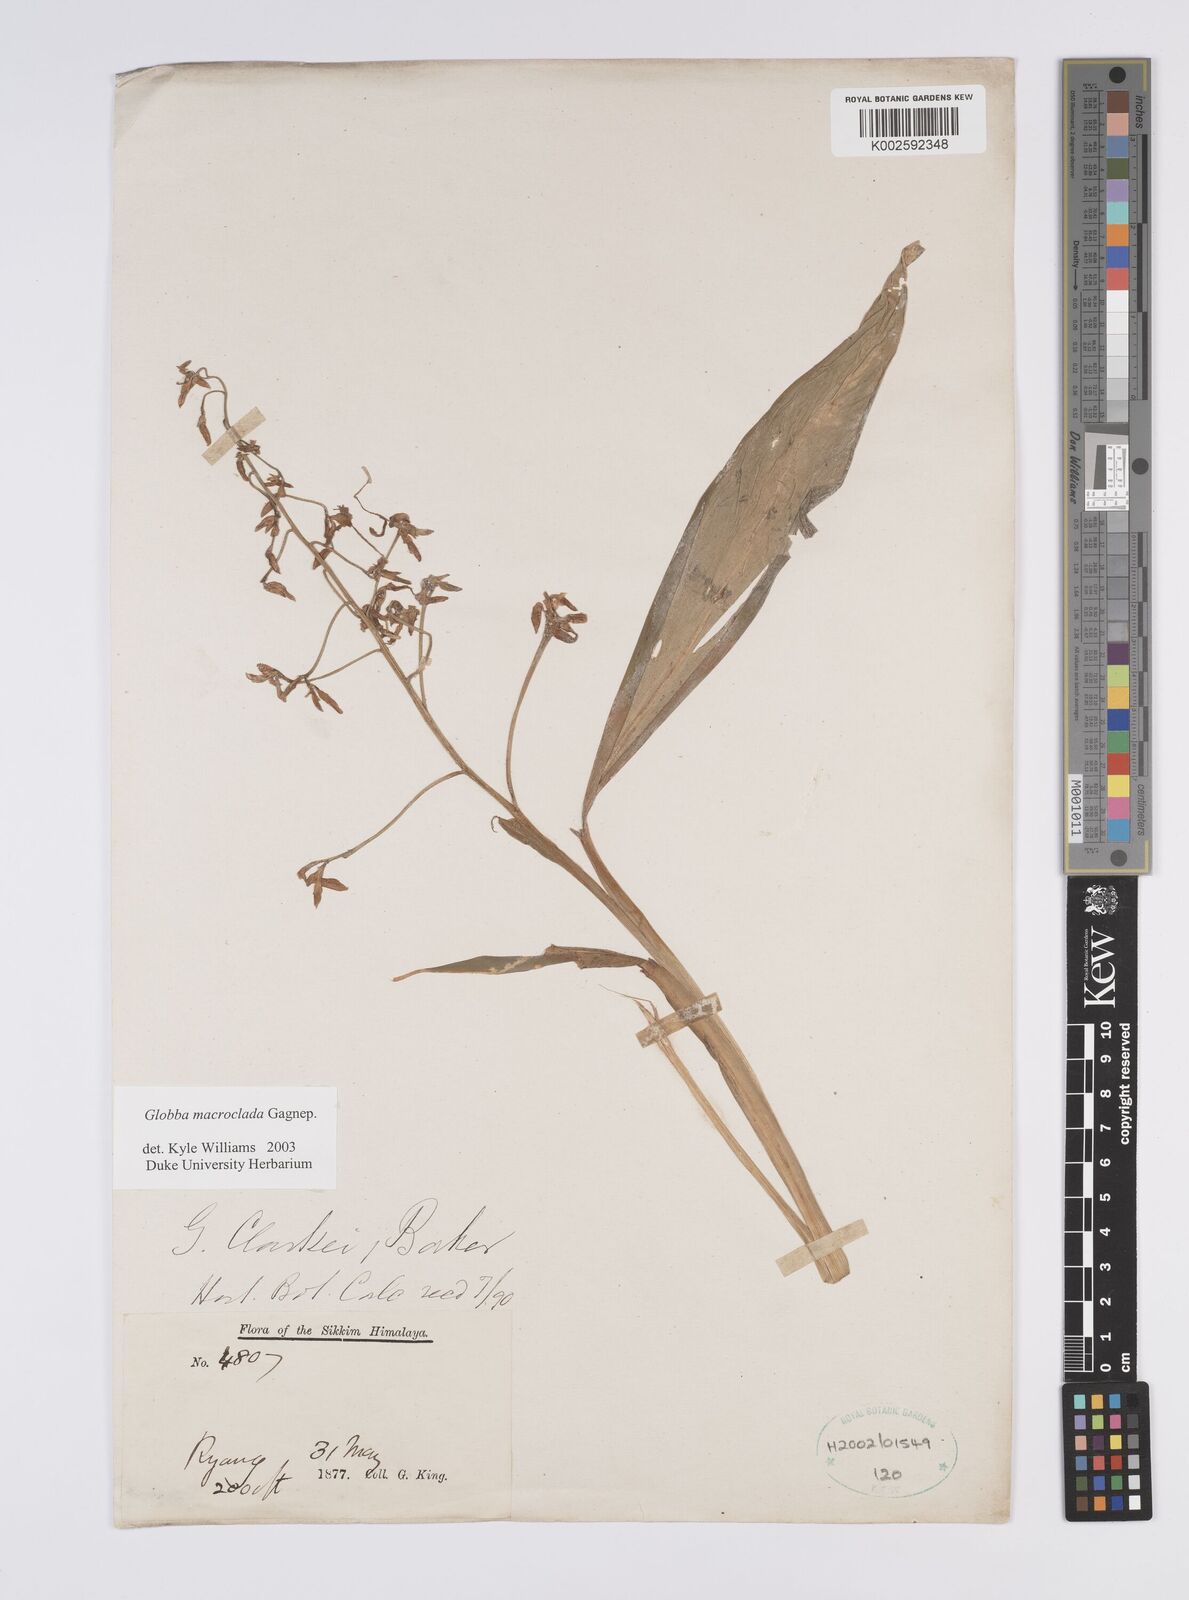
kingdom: Plantae
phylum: Tracheophyta
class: Liliopsida
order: Zingiberales
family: Zingiberaceae
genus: Globba
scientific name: Globba macroclada
